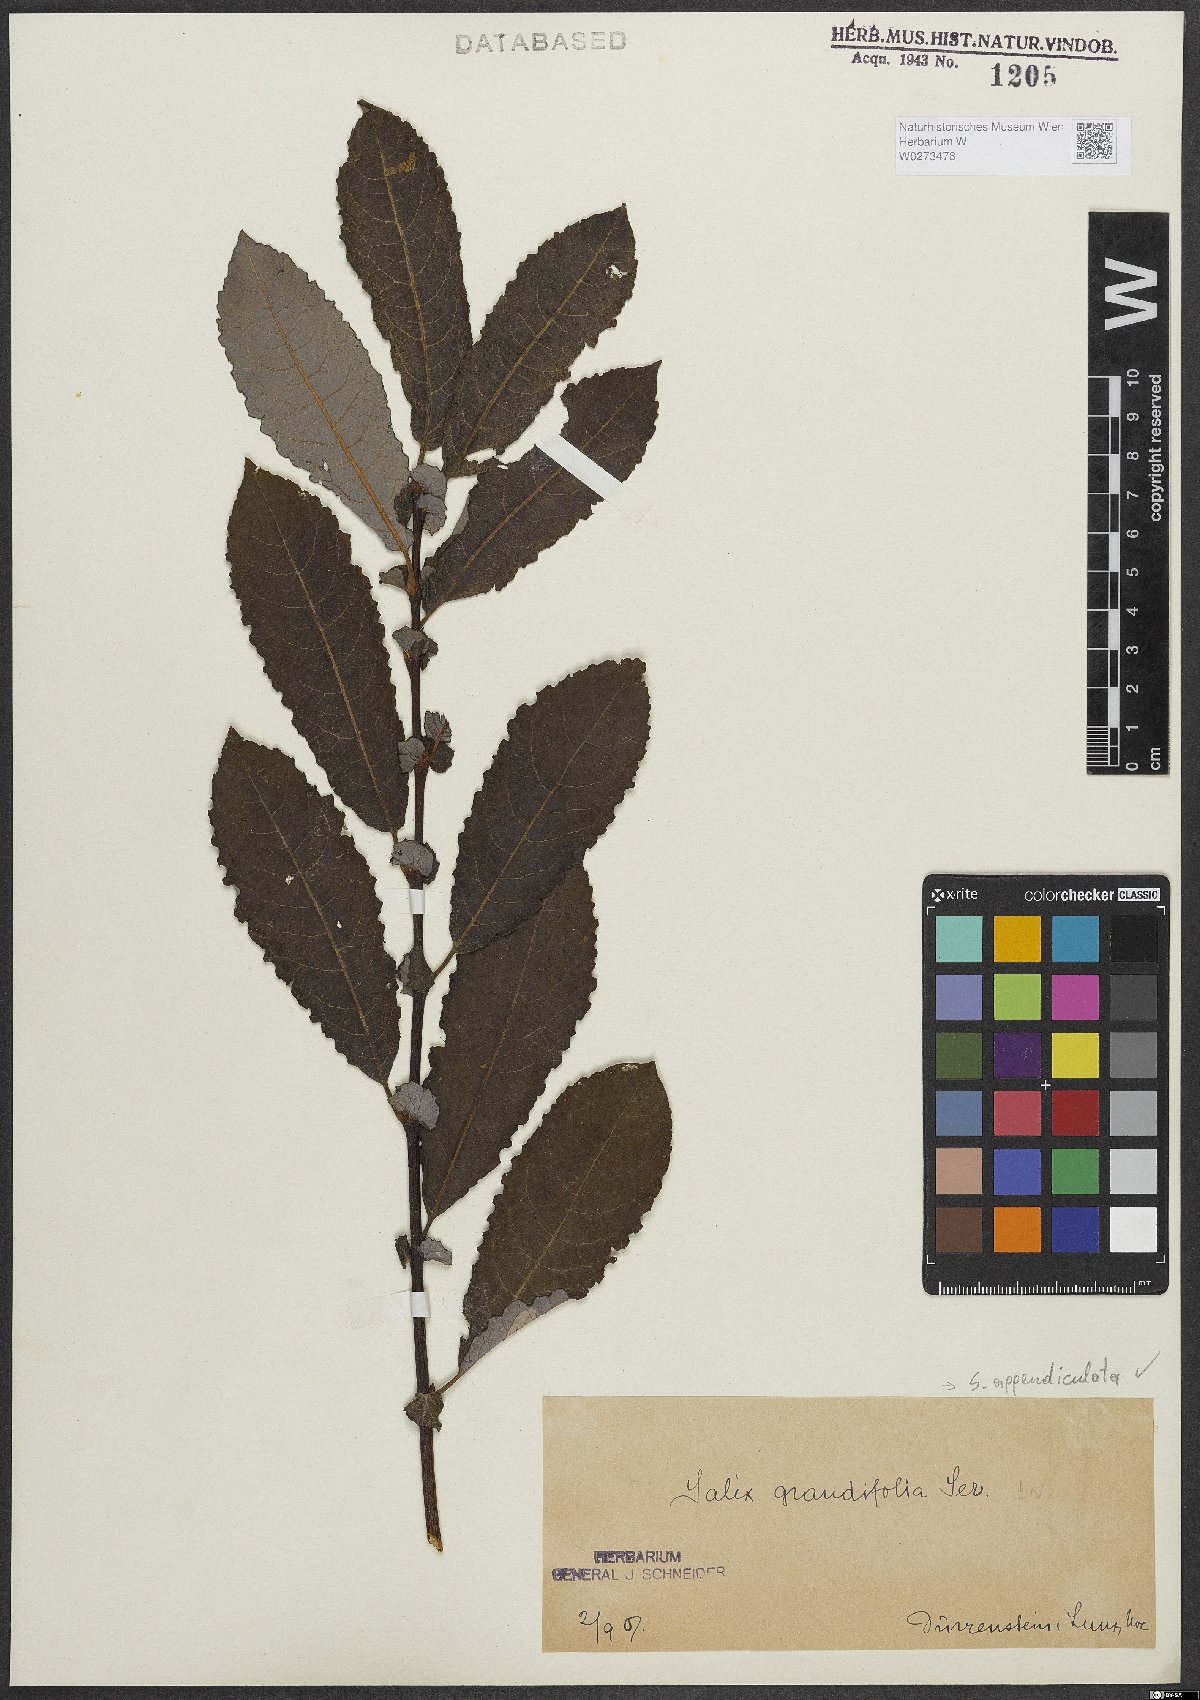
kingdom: Plantae
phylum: Tracheophyta
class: Magnoliopsida
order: Malpighiales
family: Salicaceae
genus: Salix
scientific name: Salix appendiculata
